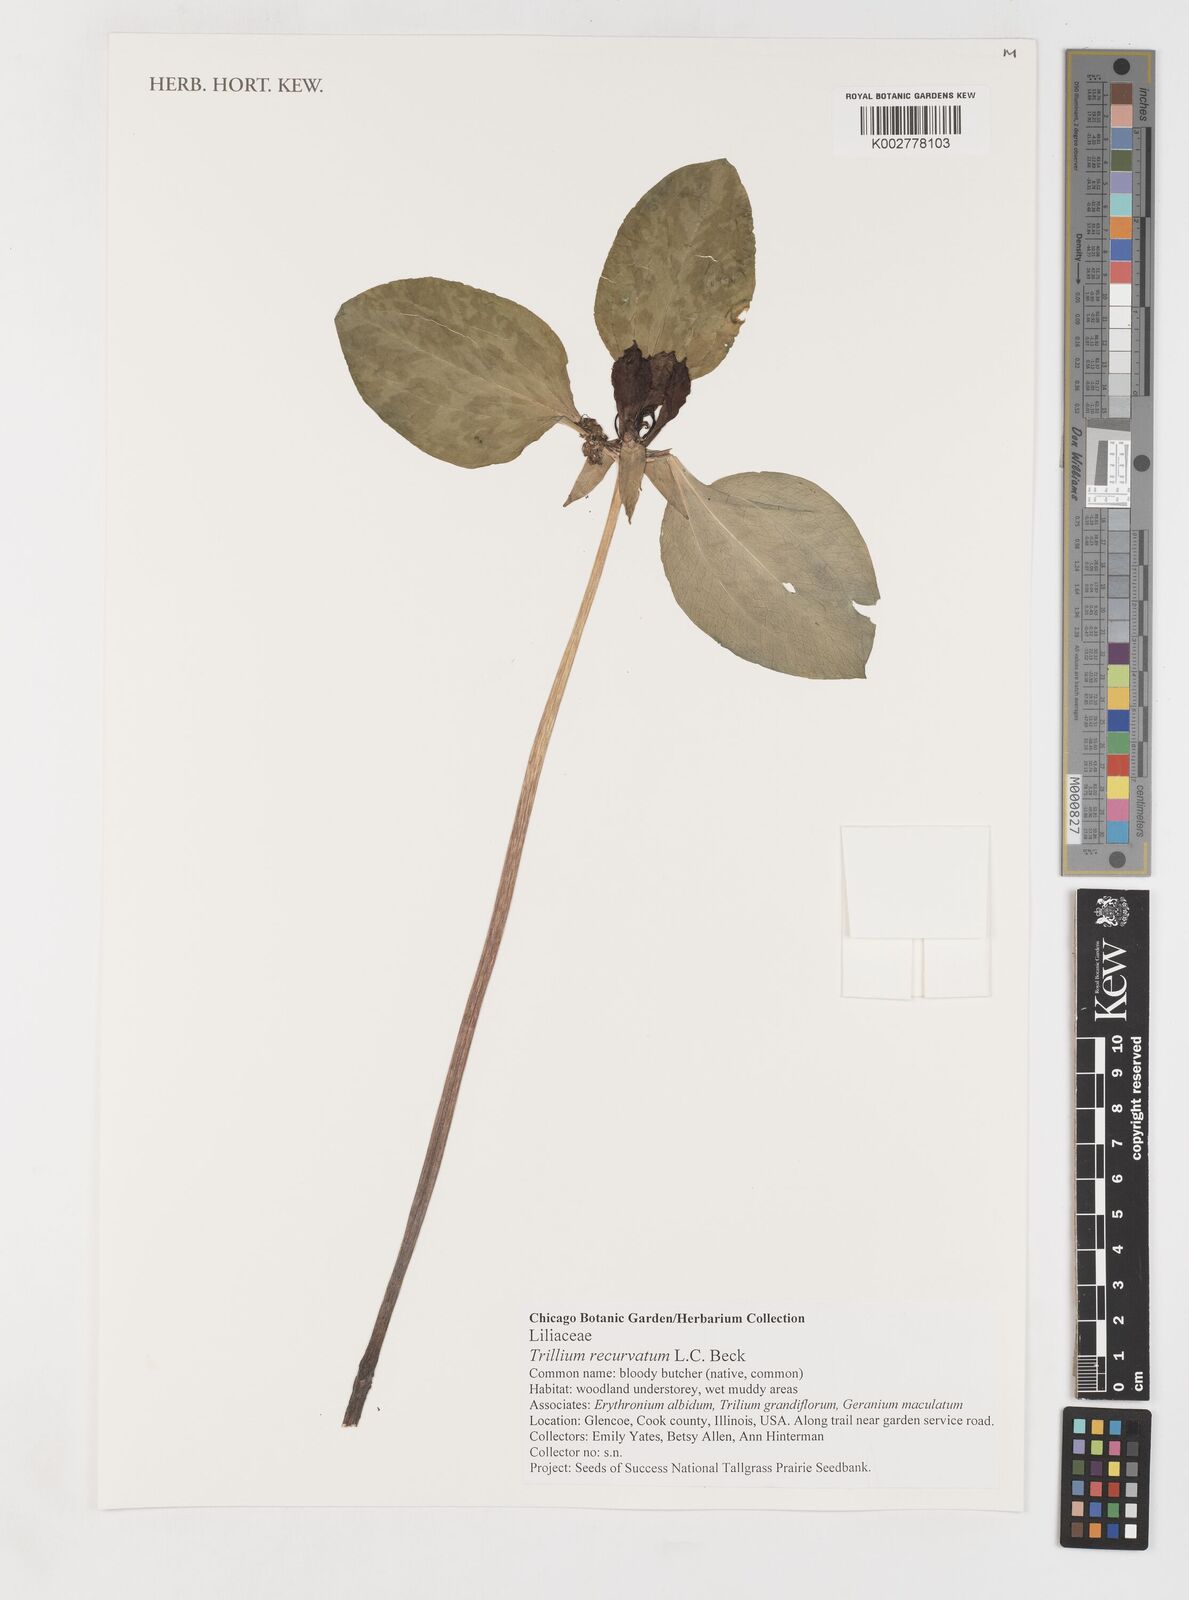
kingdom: Plantae
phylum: Tracheophyta
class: Liliopsida
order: Liliales
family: Melanthiaceae
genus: Trillium
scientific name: Trillium recurvatum
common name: Bloody butcher
